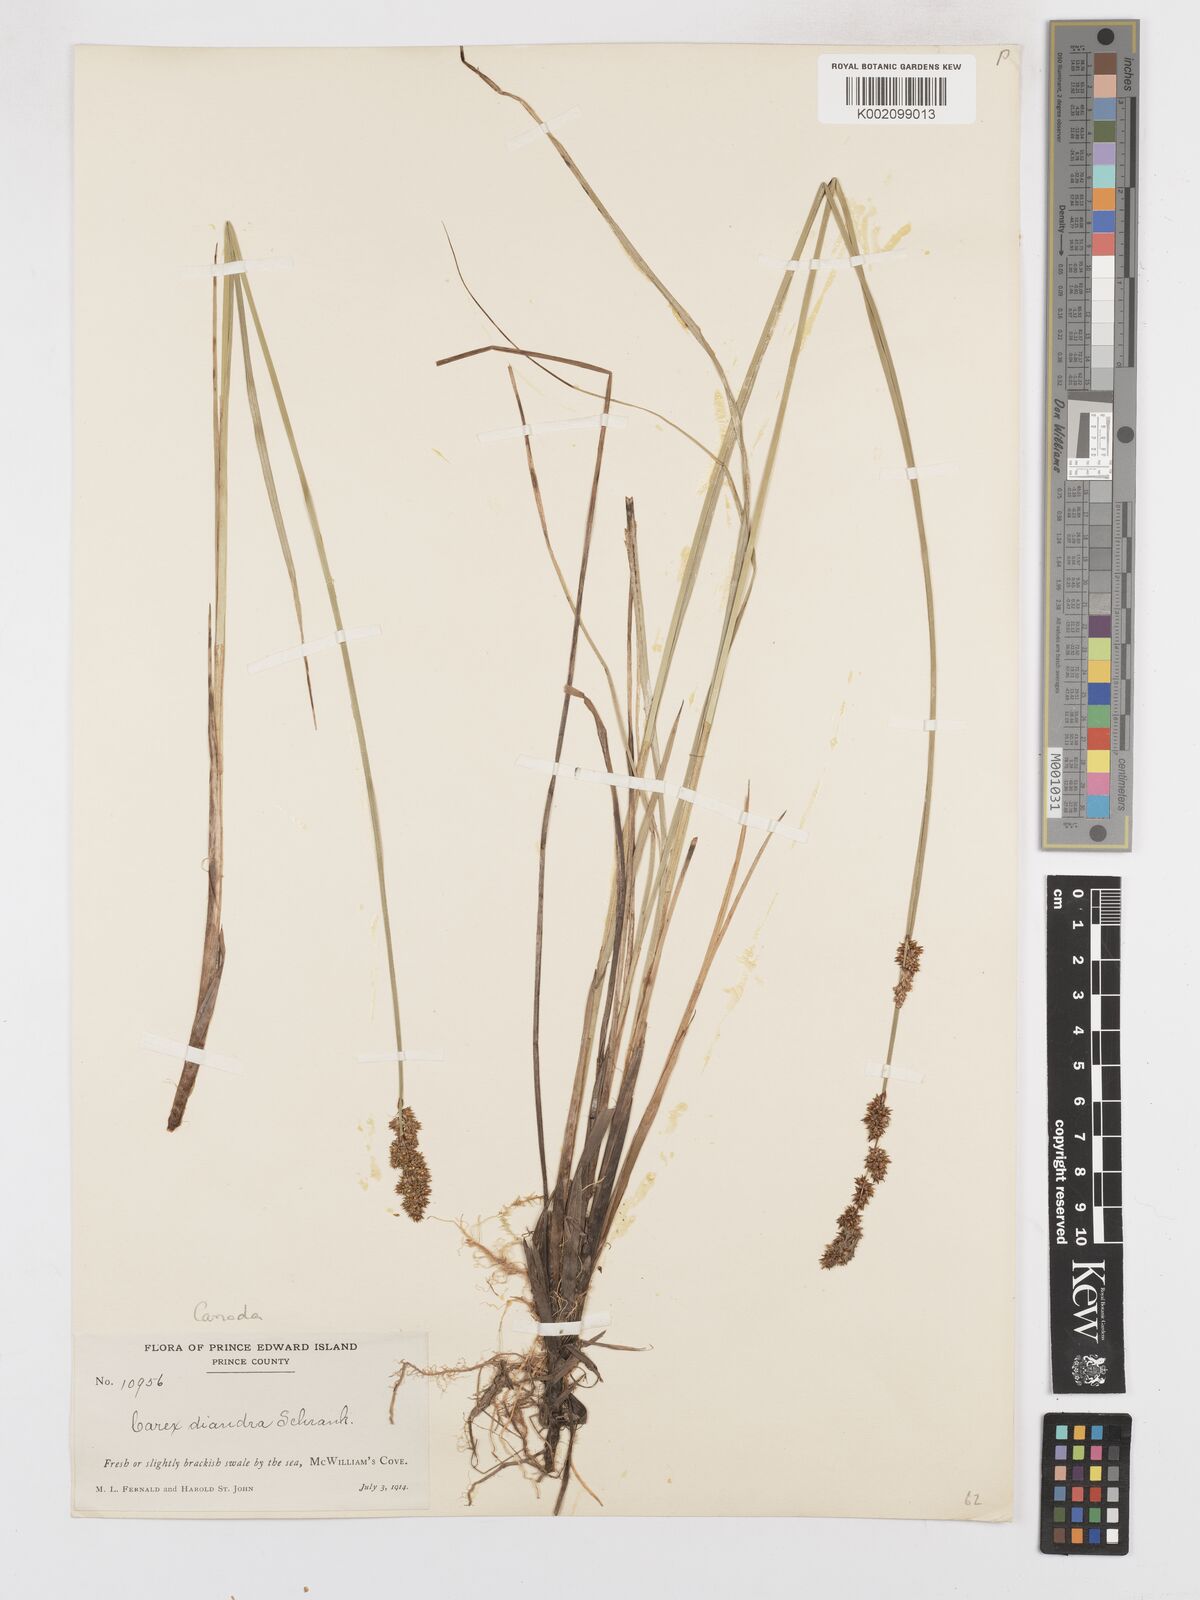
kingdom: Plantae
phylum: Tracheophyta
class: Liliopsida
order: Poales
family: Cyperaceae
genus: Carex
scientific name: Carex diandra
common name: Lesser tussock-sedge
